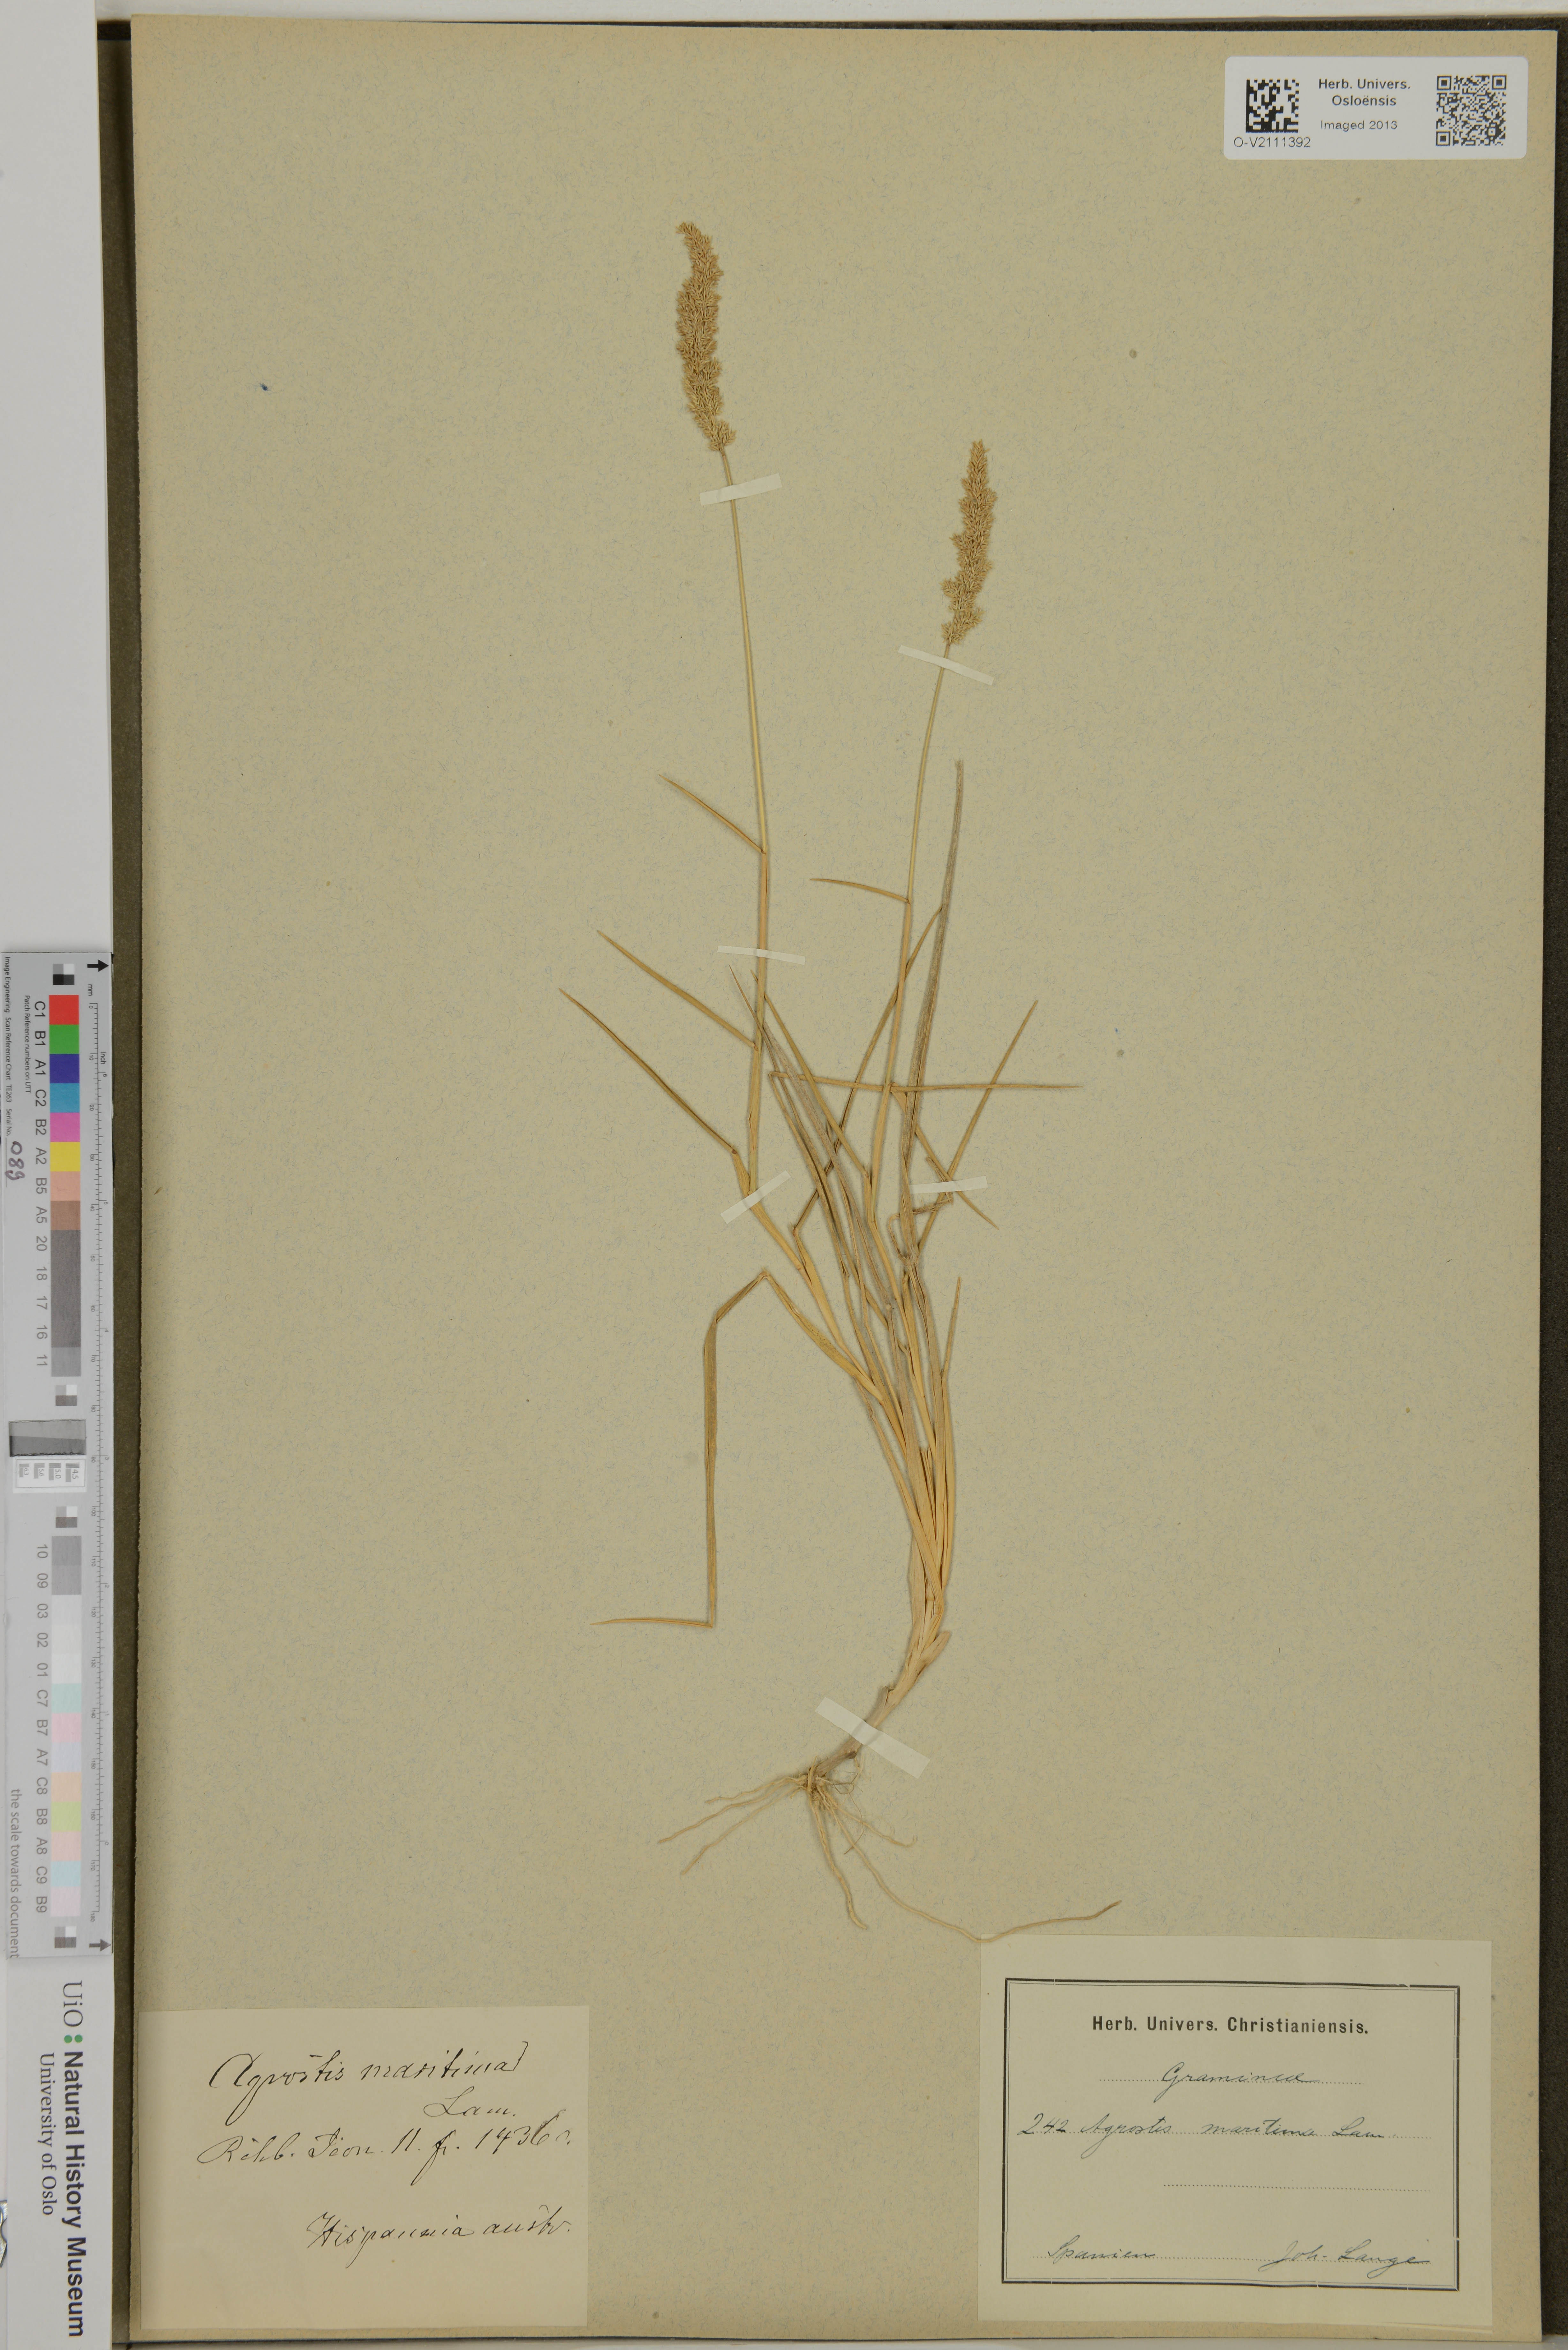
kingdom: Plantae
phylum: Tracheophyta
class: Liliopsida
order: Poales
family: Poaceae
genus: Agrostis
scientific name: Agrostis stolonifera
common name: Creeping bentgrass
